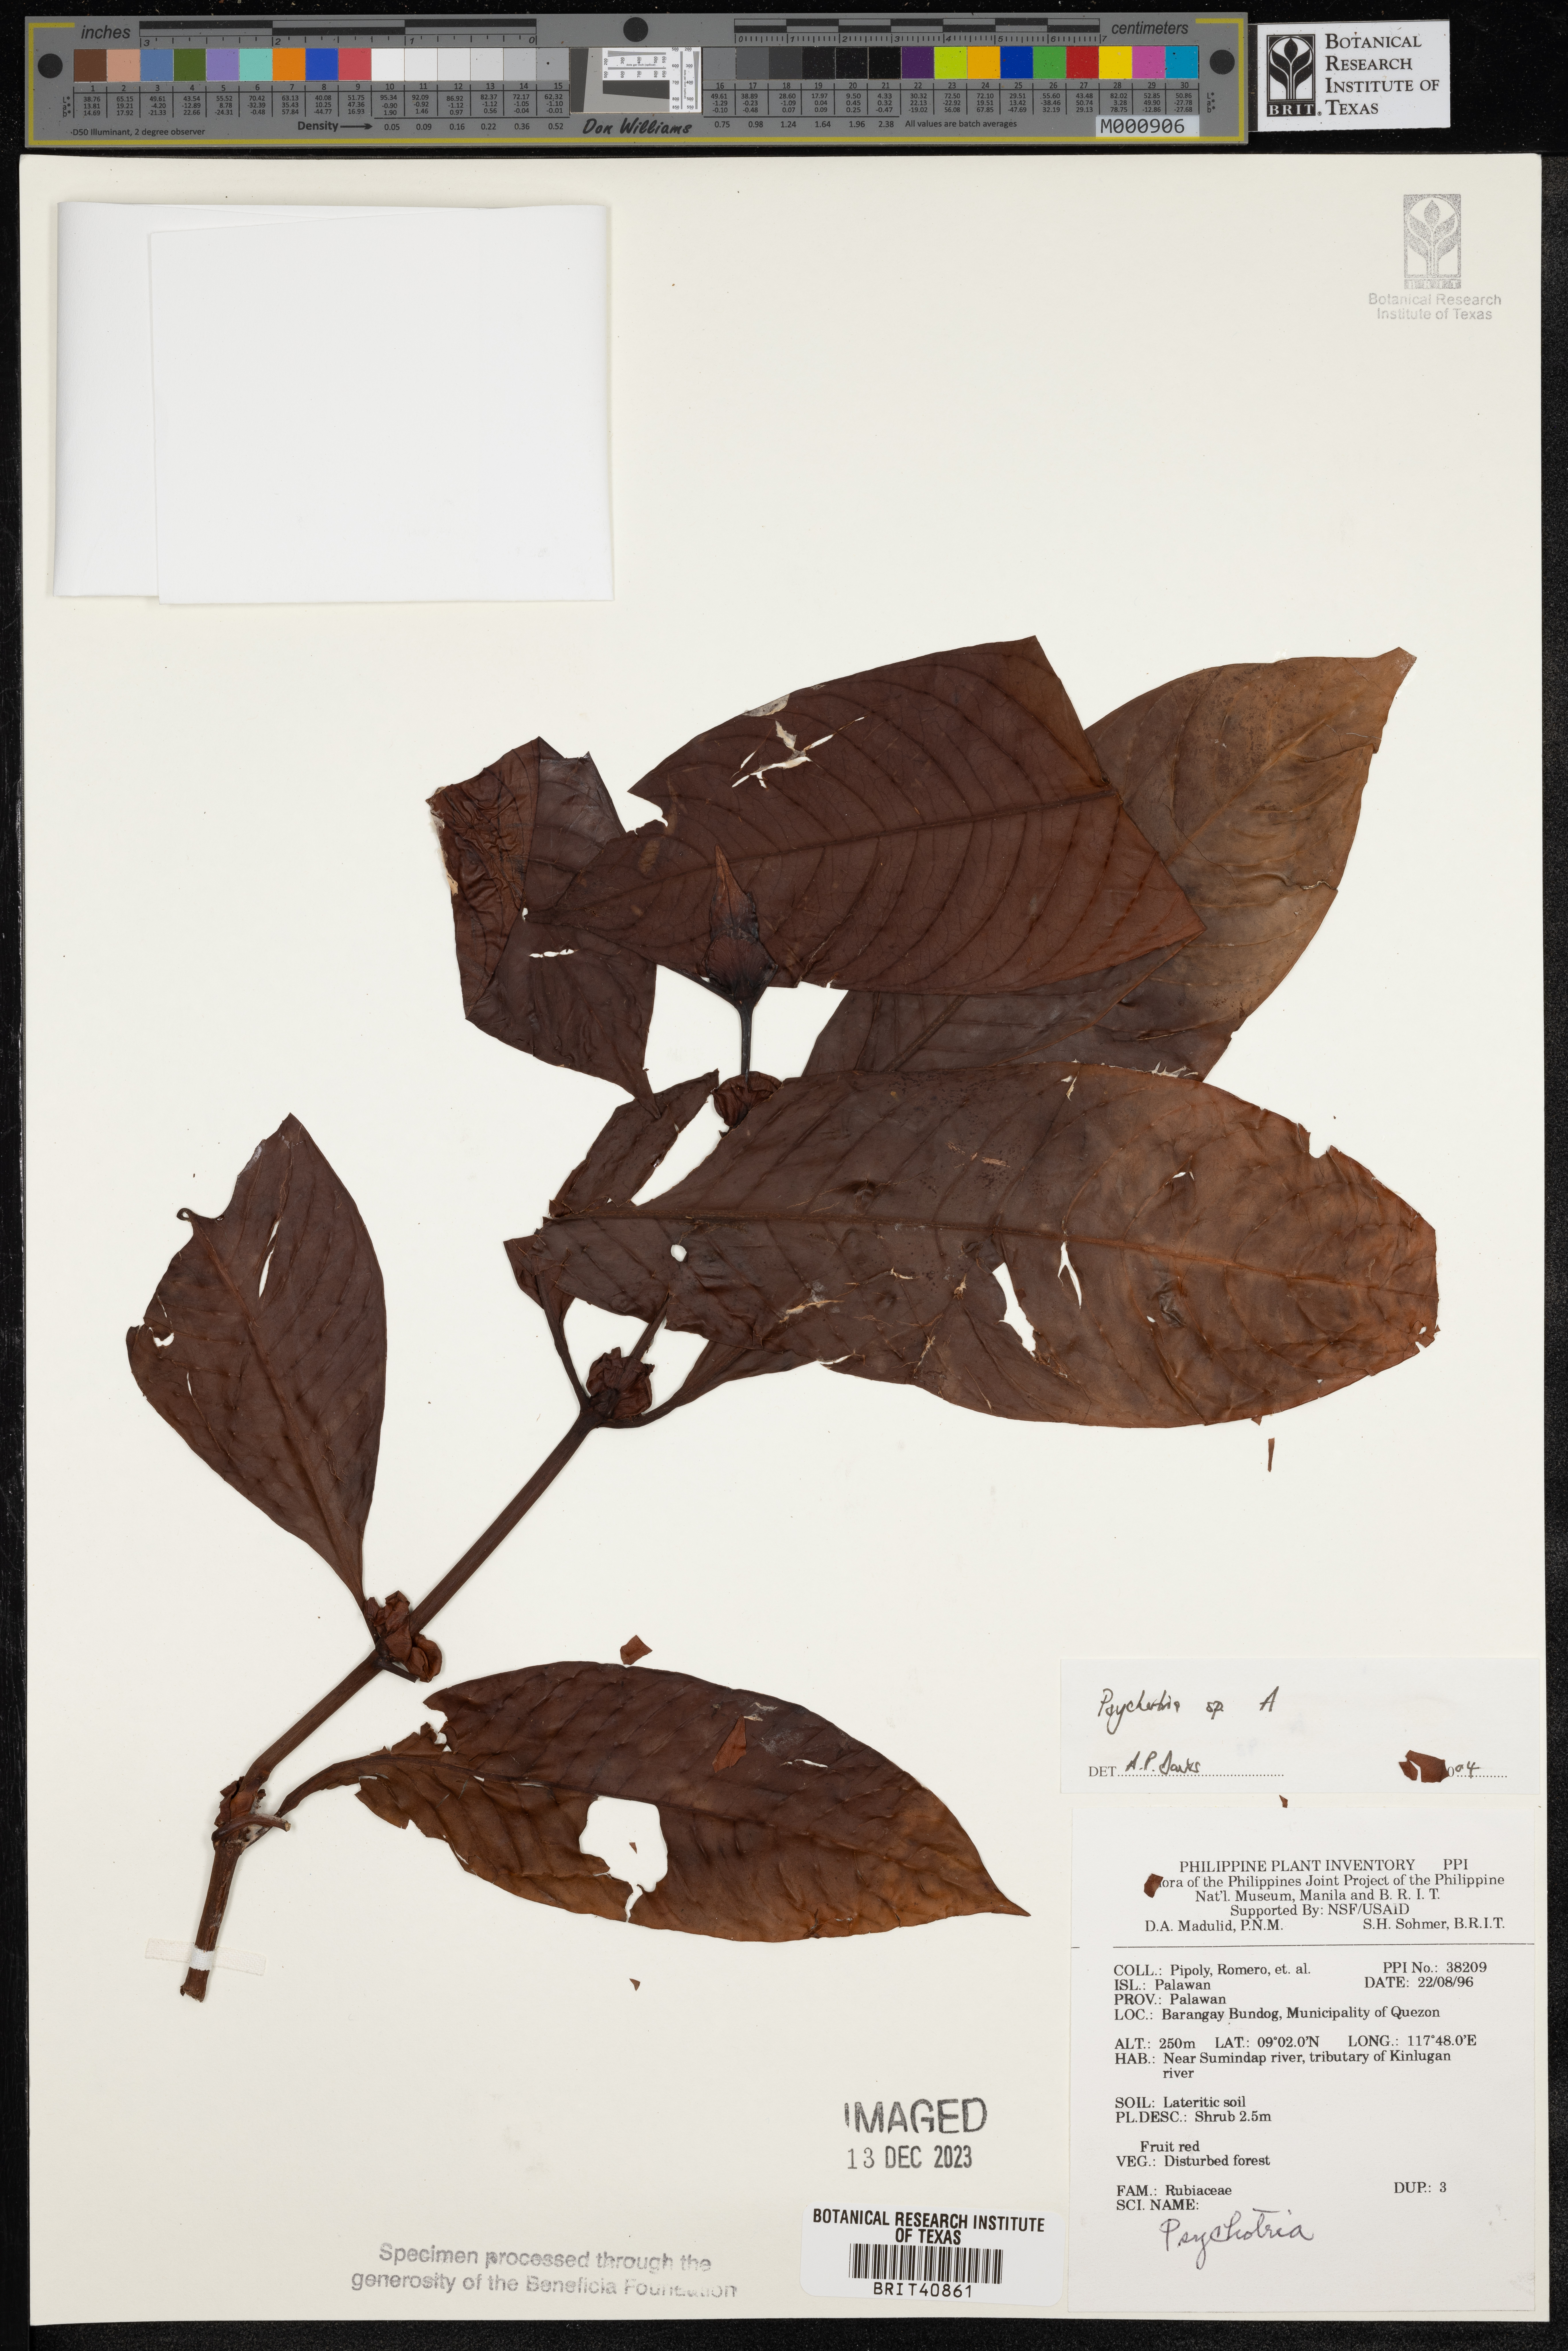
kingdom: Plantae
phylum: Tracheophyta
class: Magnoliopsida
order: Gentianales
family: Rubiaceae
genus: Psychotria
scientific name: Psychotria
